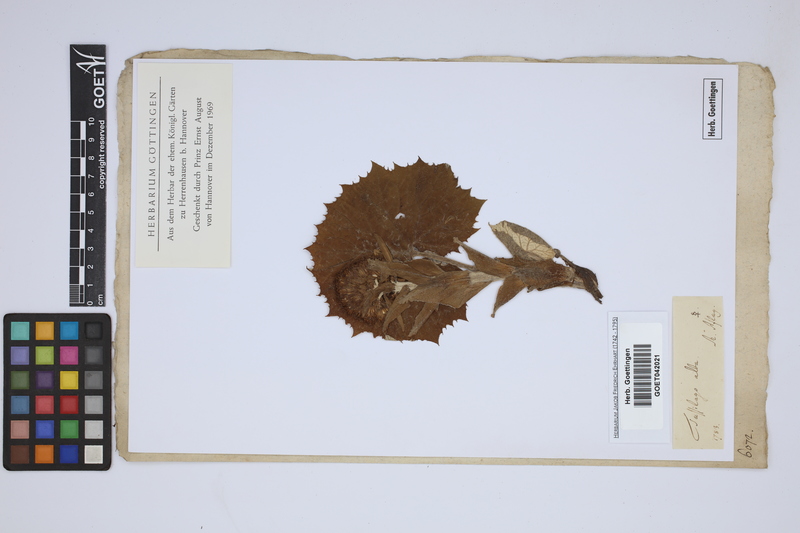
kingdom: Plantae
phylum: Tracheophyta
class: Magnoliopsida
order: Asterales
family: Asteraceae
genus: Petasites
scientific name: Petasites albus
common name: White butterbur
